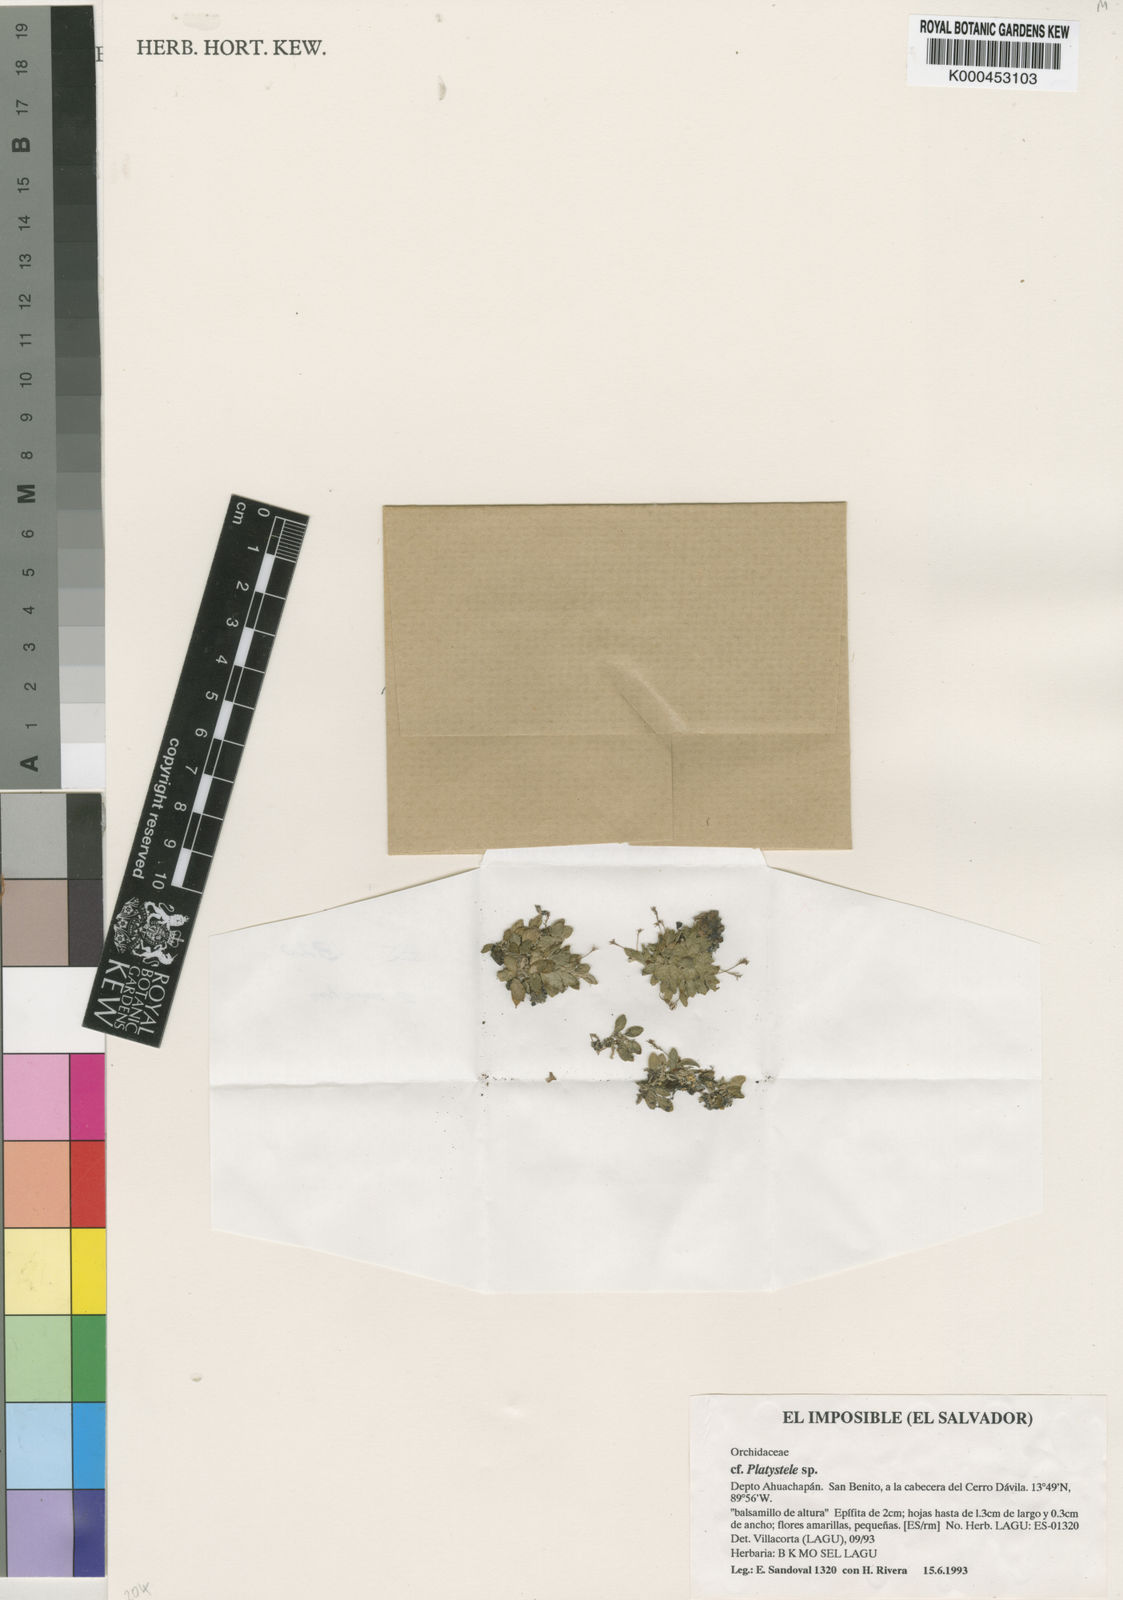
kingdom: Plantae
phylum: Tracheophyta
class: Liliopsida
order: Asparagales
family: Orchidaceae
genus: Platystele
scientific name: Platystele
